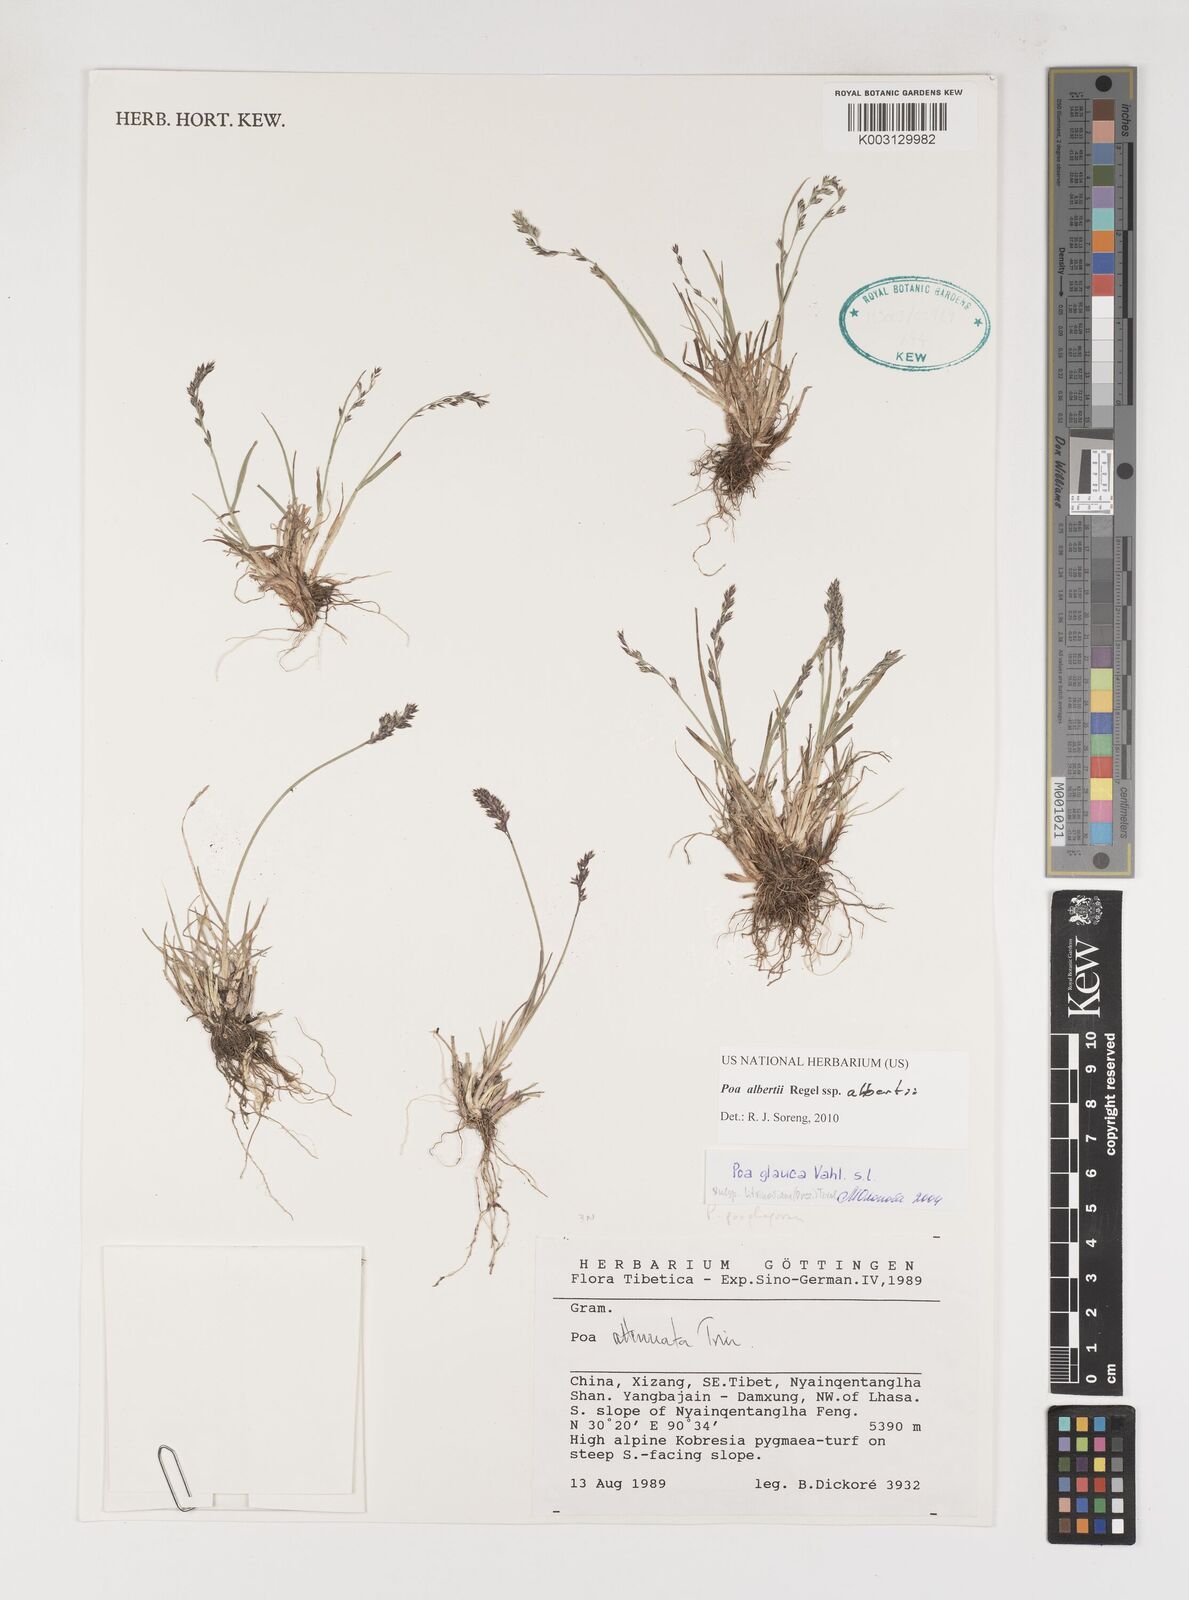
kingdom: Plantae
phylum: Tracheophyta
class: Liliopsida
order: Poales
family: Poaceae
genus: Poa
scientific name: Poa alberti
